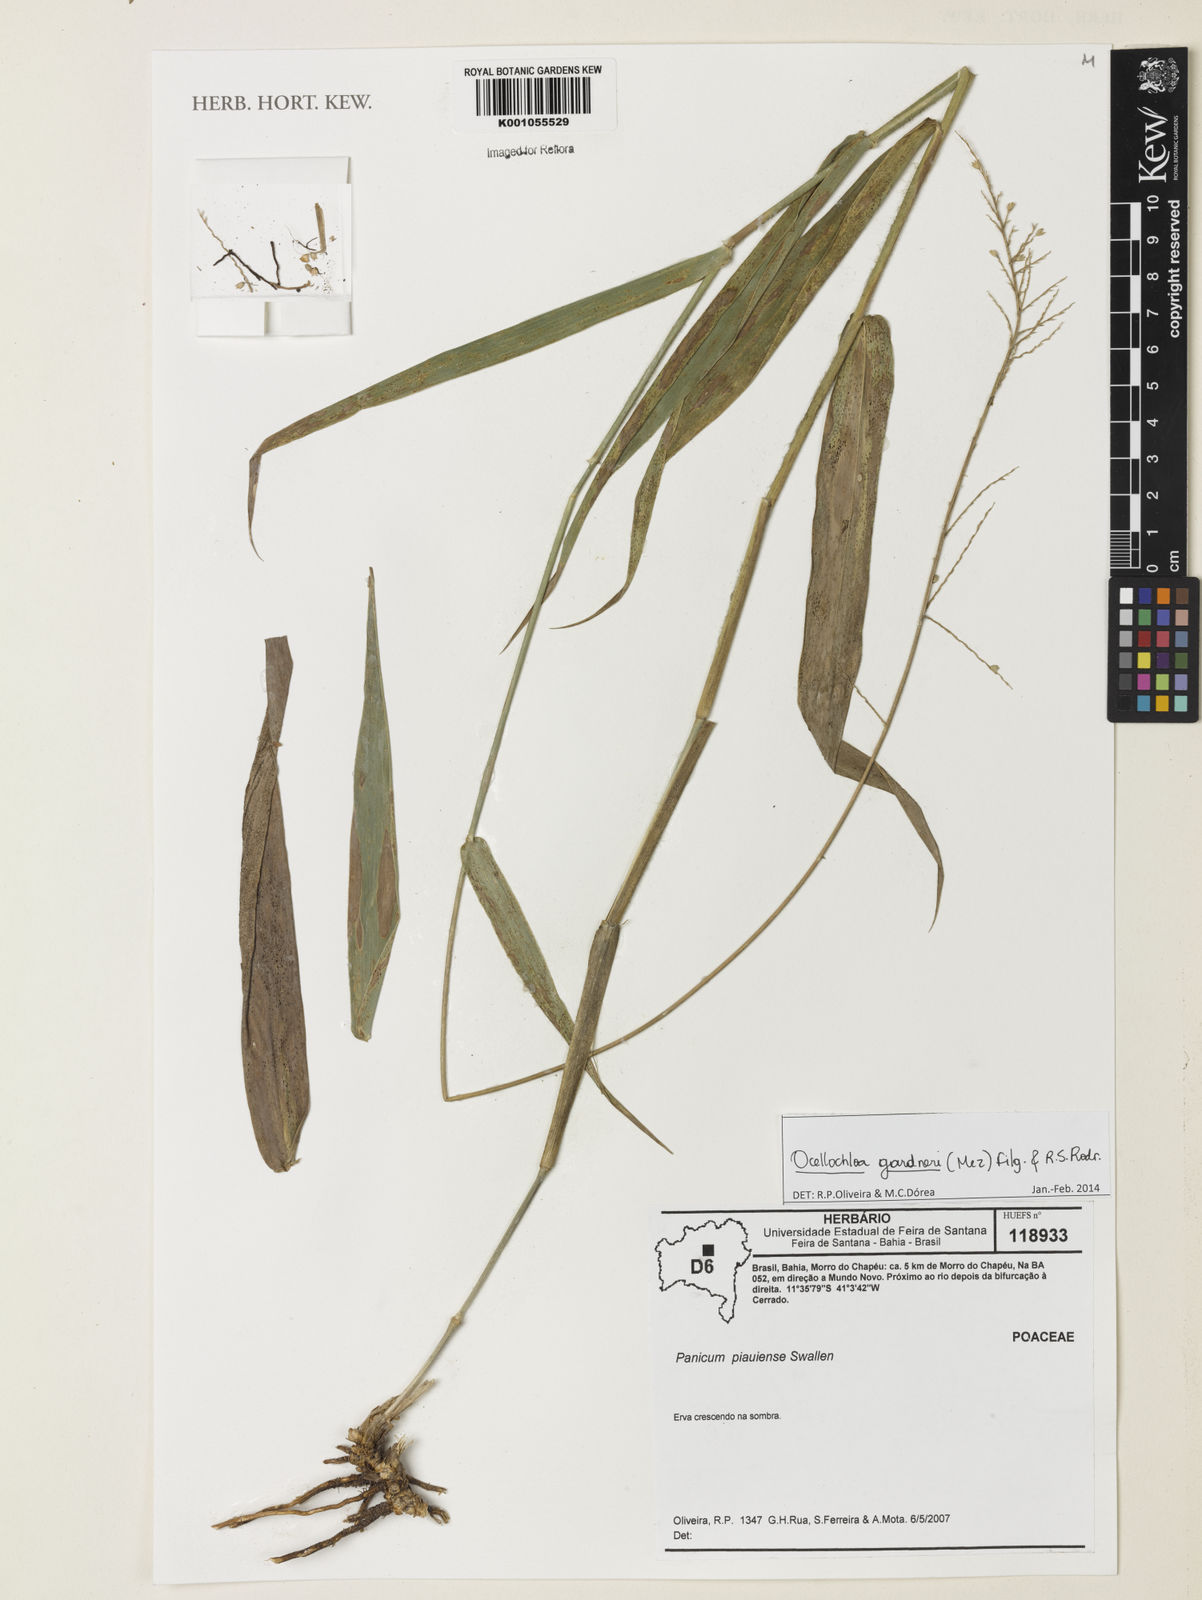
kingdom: Plantae
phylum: Tracheophyta
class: Liliopsida
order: Poales
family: Poaceae
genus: Ocellochloa
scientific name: Ocellochloa gardneri
